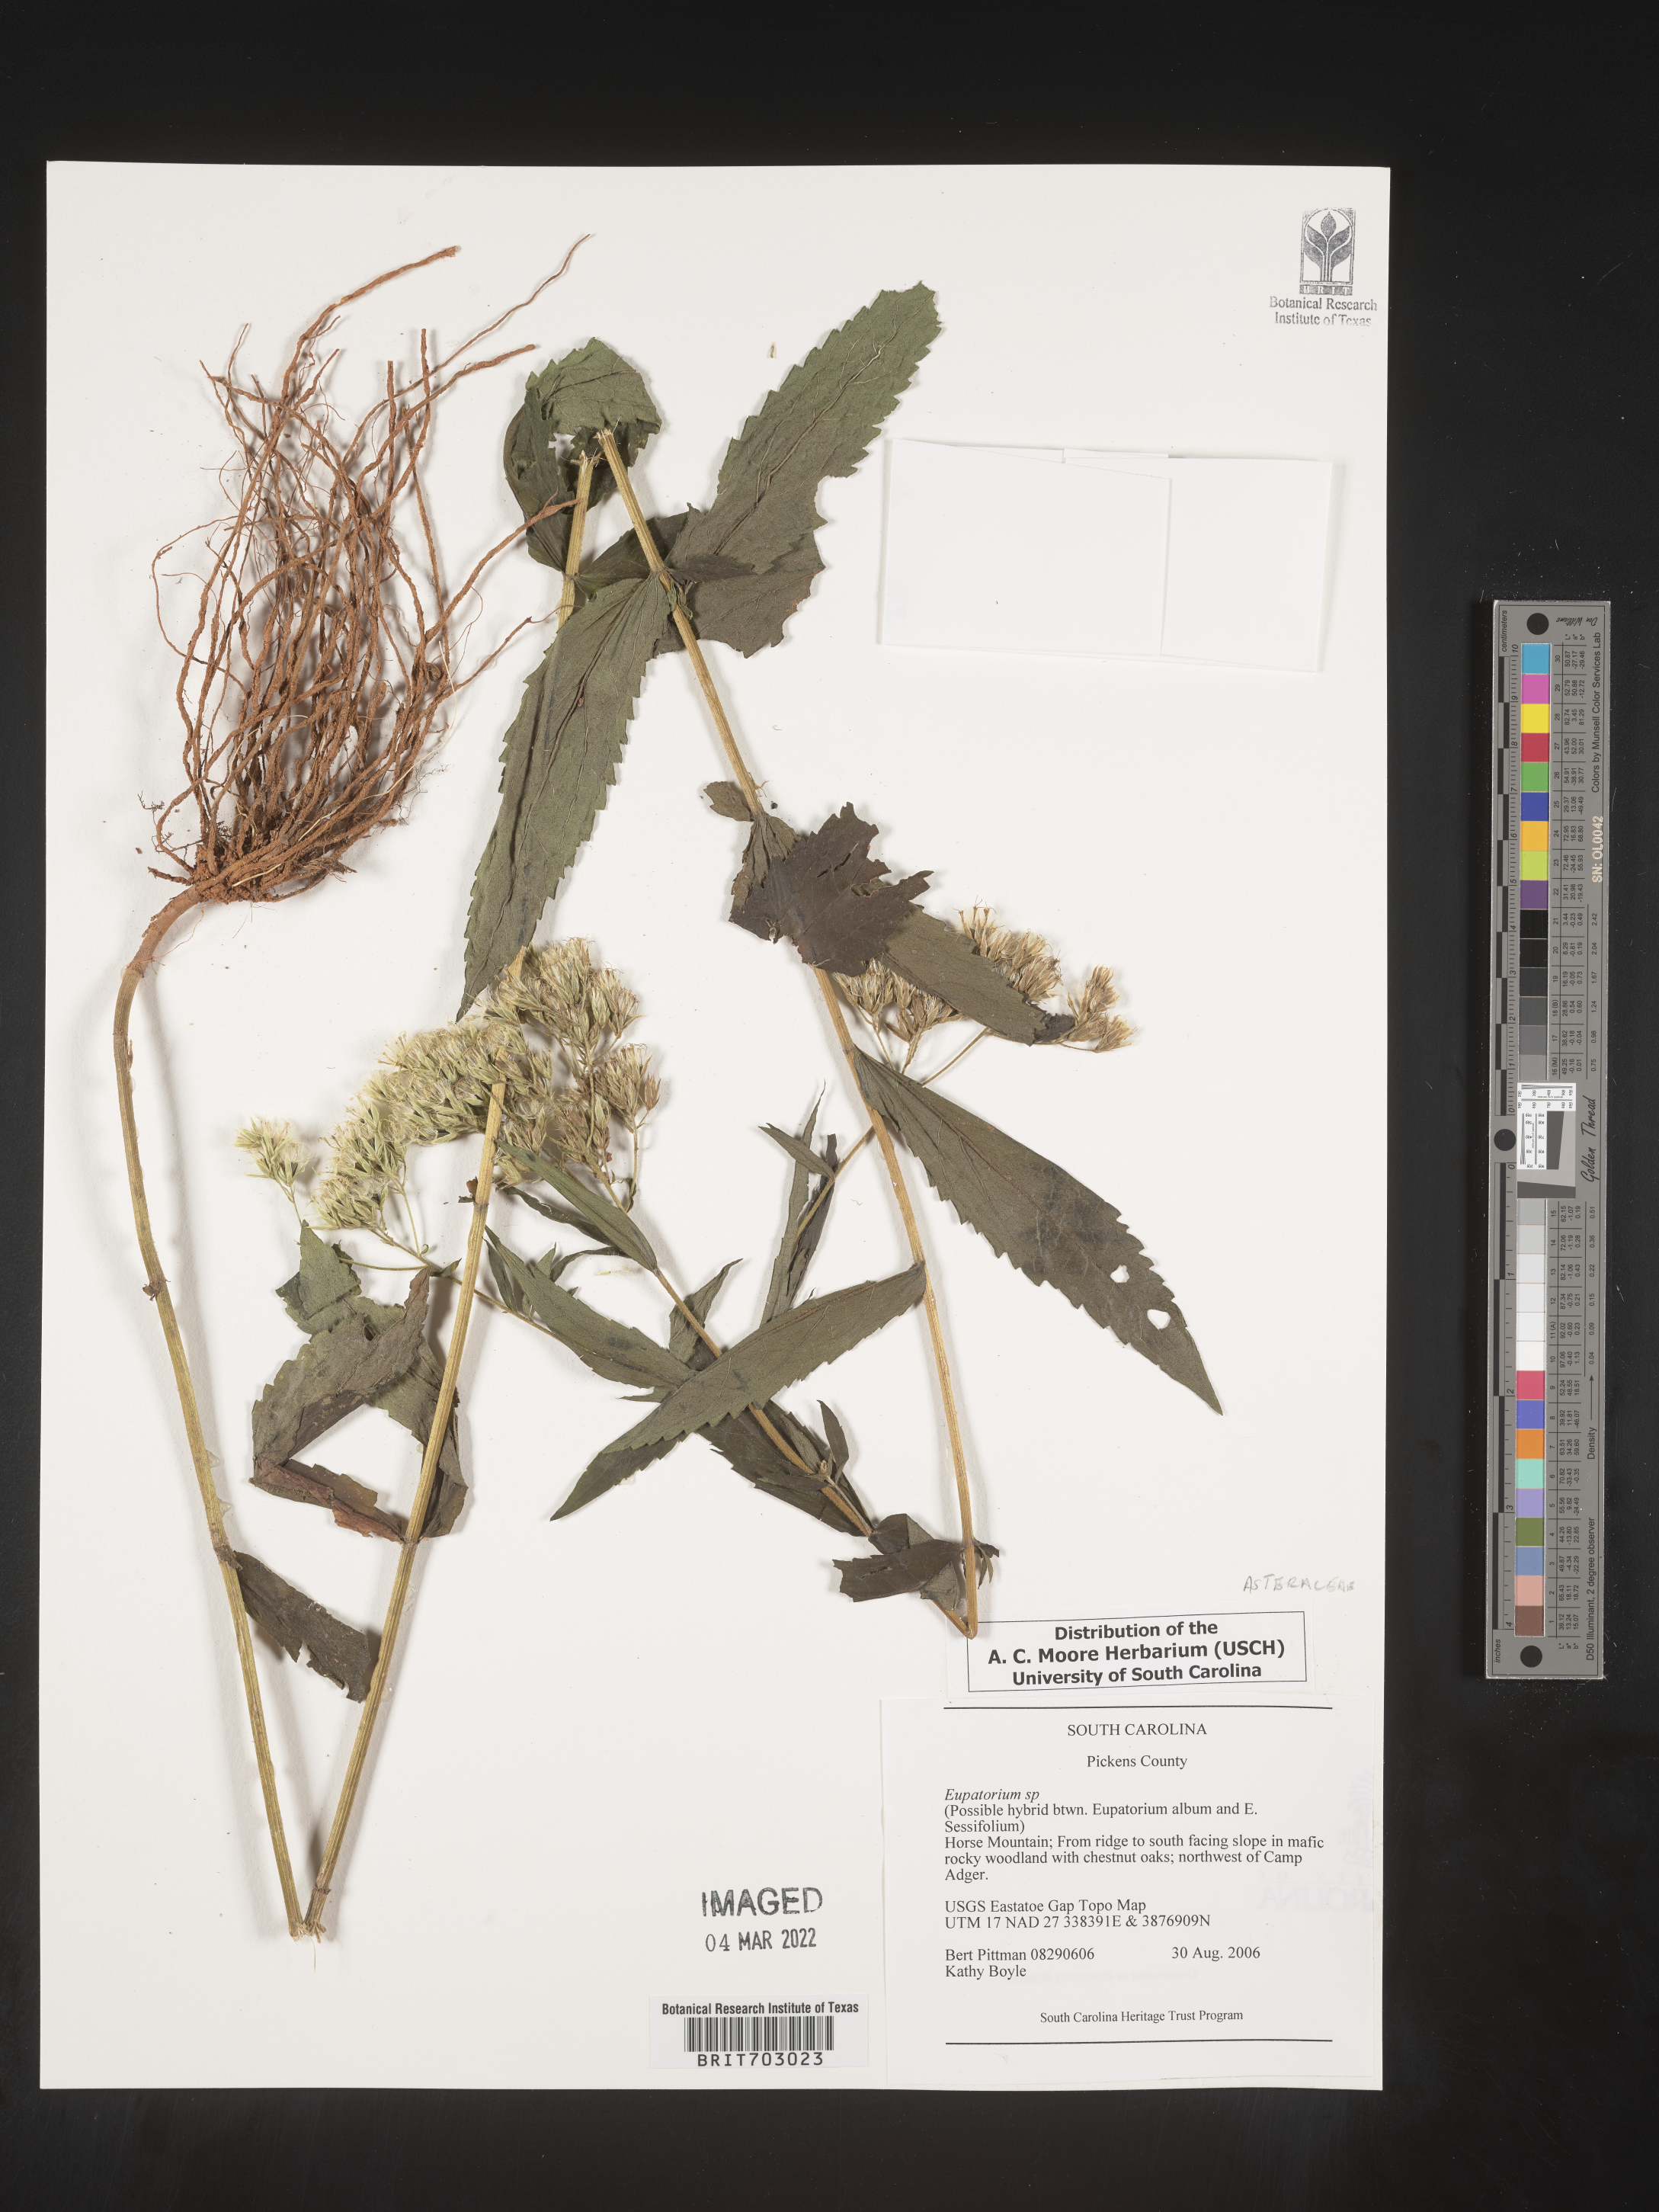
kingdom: Plantae
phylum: Tracheophyta
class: Magnoliopsida
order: Asterales
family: Asteraceae
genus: Eupatorium
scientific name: Eupatorium
